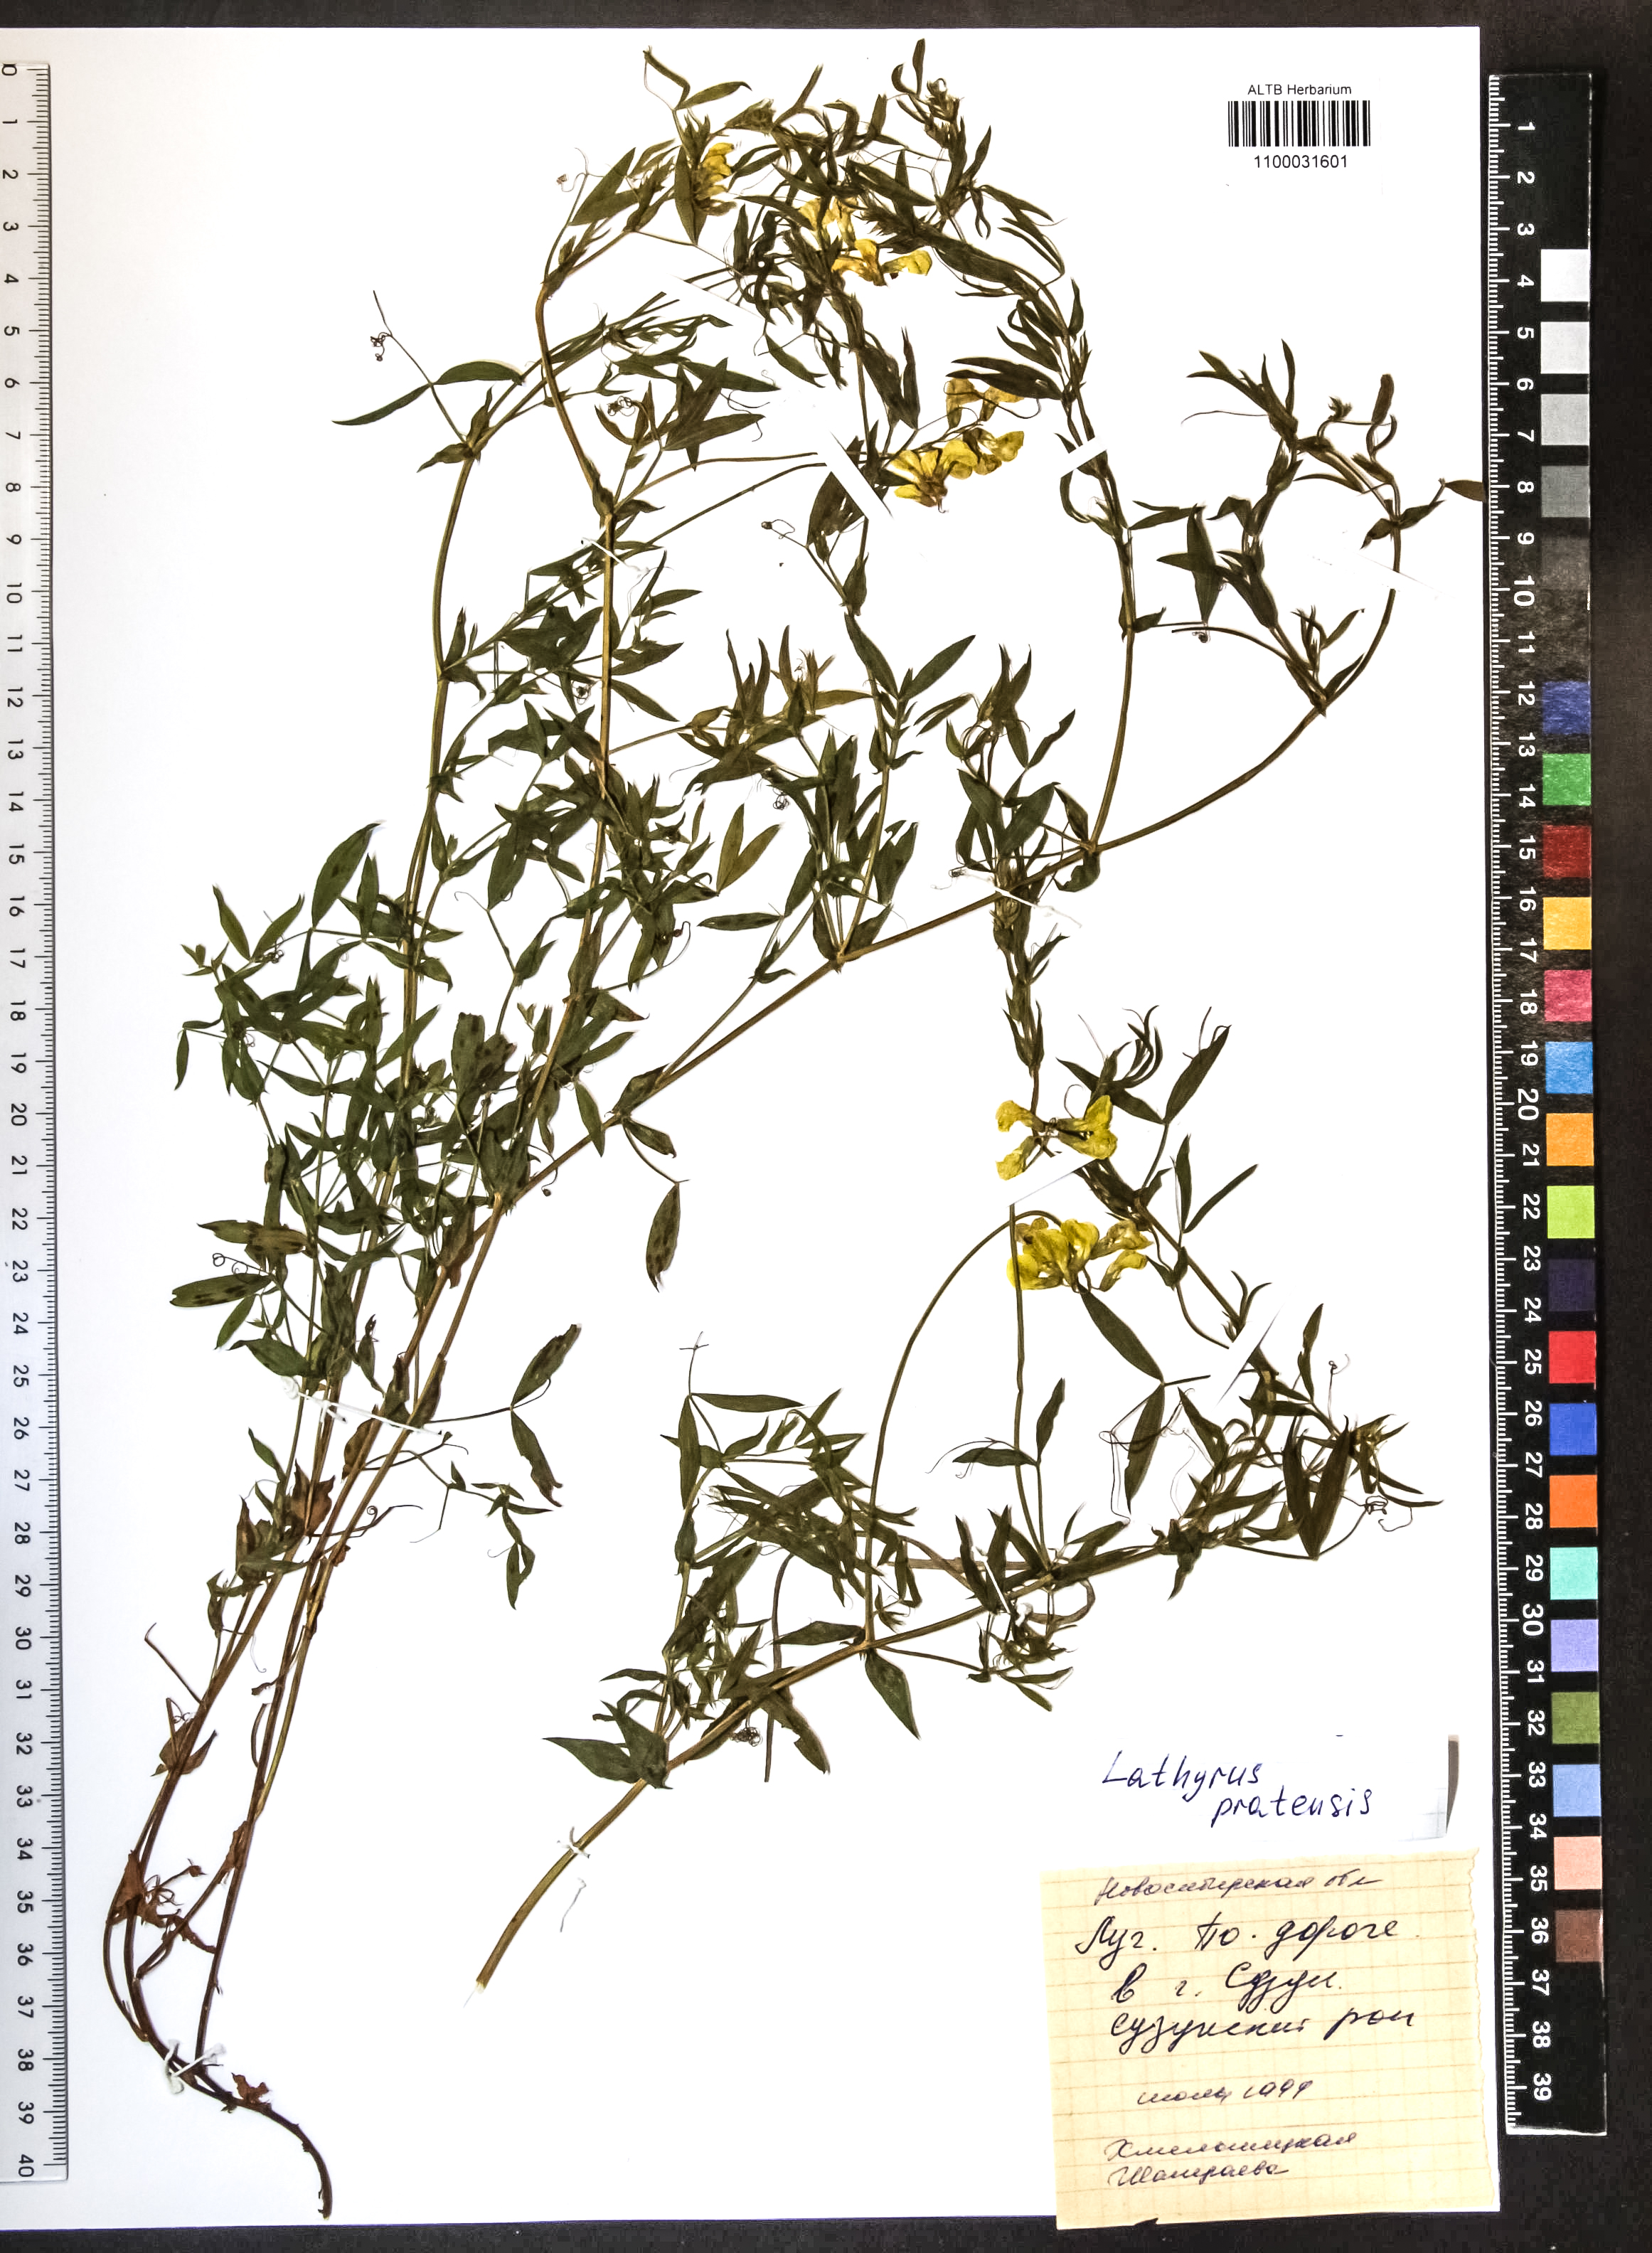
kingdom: Plantae
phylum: Tracheophyta
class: Magnoliopsida
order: Fabales
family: Fabaceae
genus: Lathyrus
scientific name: Lathyrus pratensis
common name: Meadow vetchling
